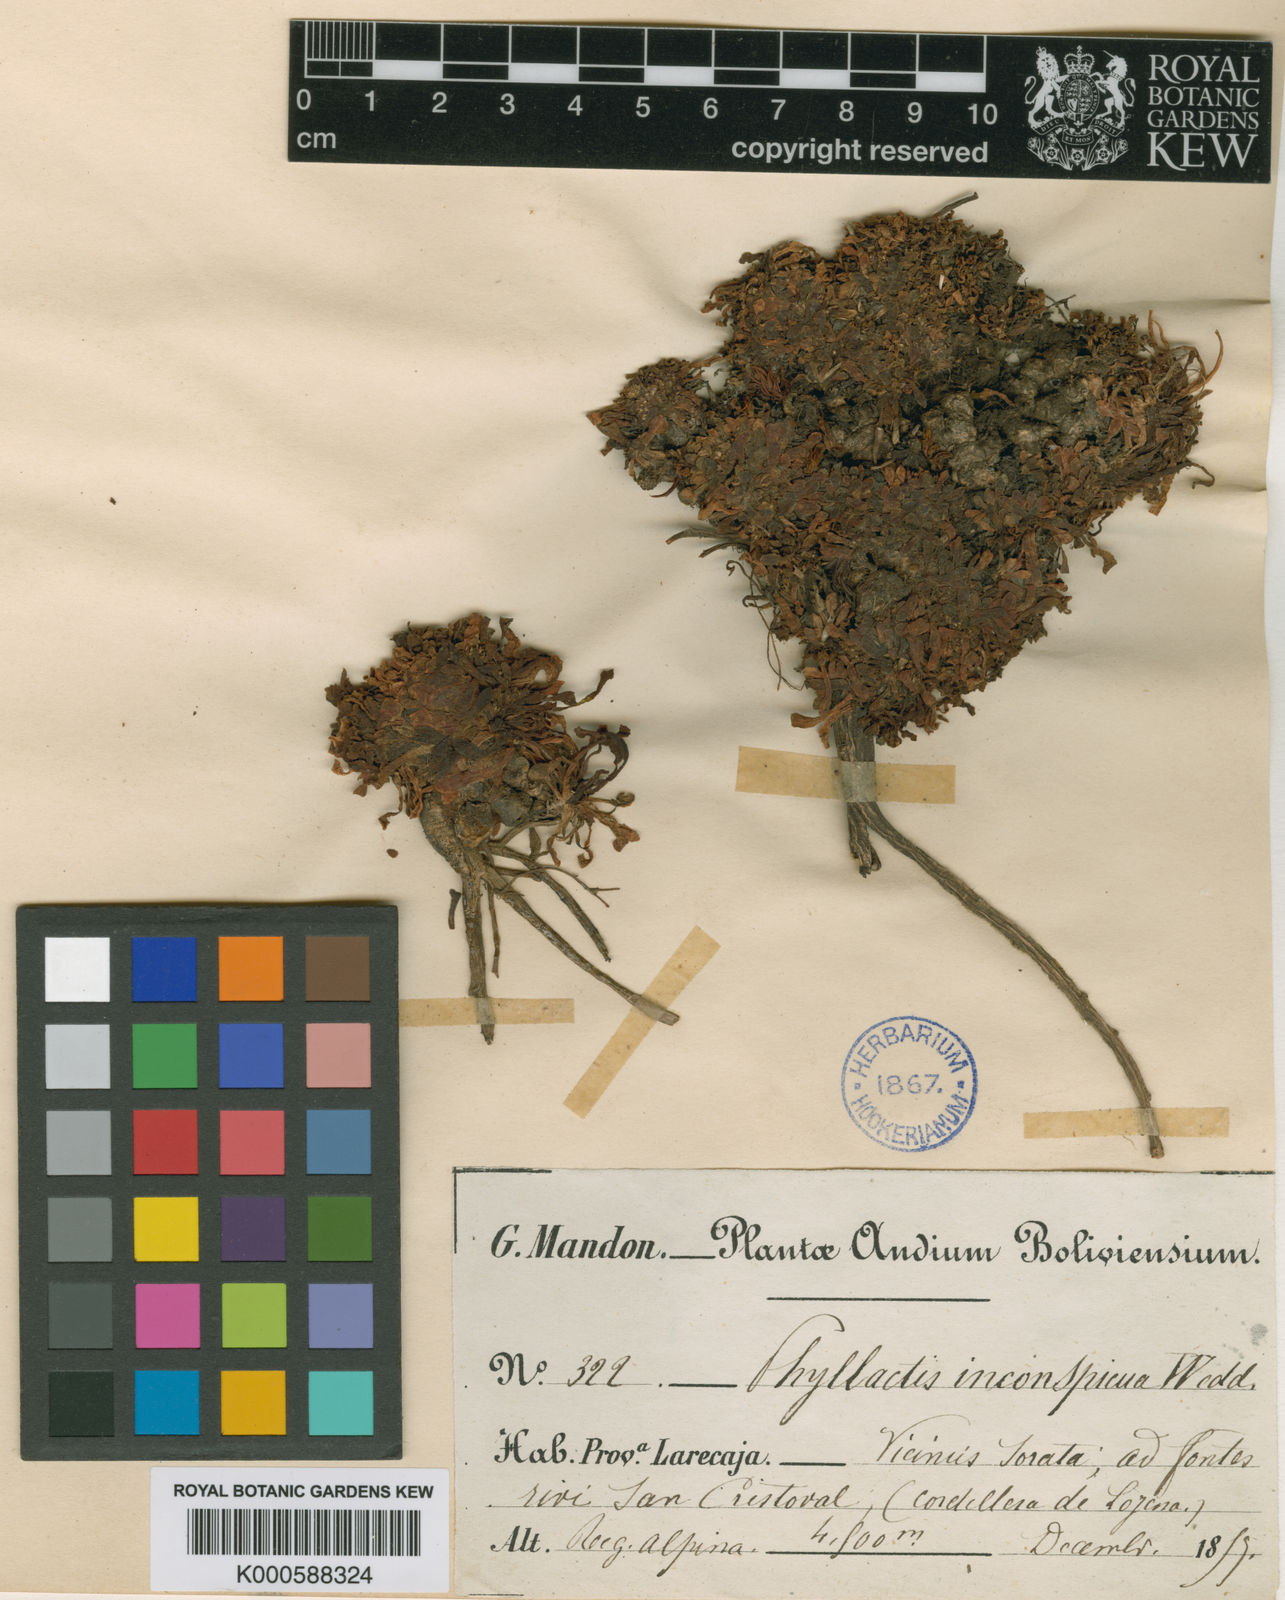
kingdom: Plantae
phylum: Tracheophyta
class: Magnoliopsida
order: Dipsacales
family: Caprifoliaceae
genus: Valeriana
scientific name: Valeriana densa
